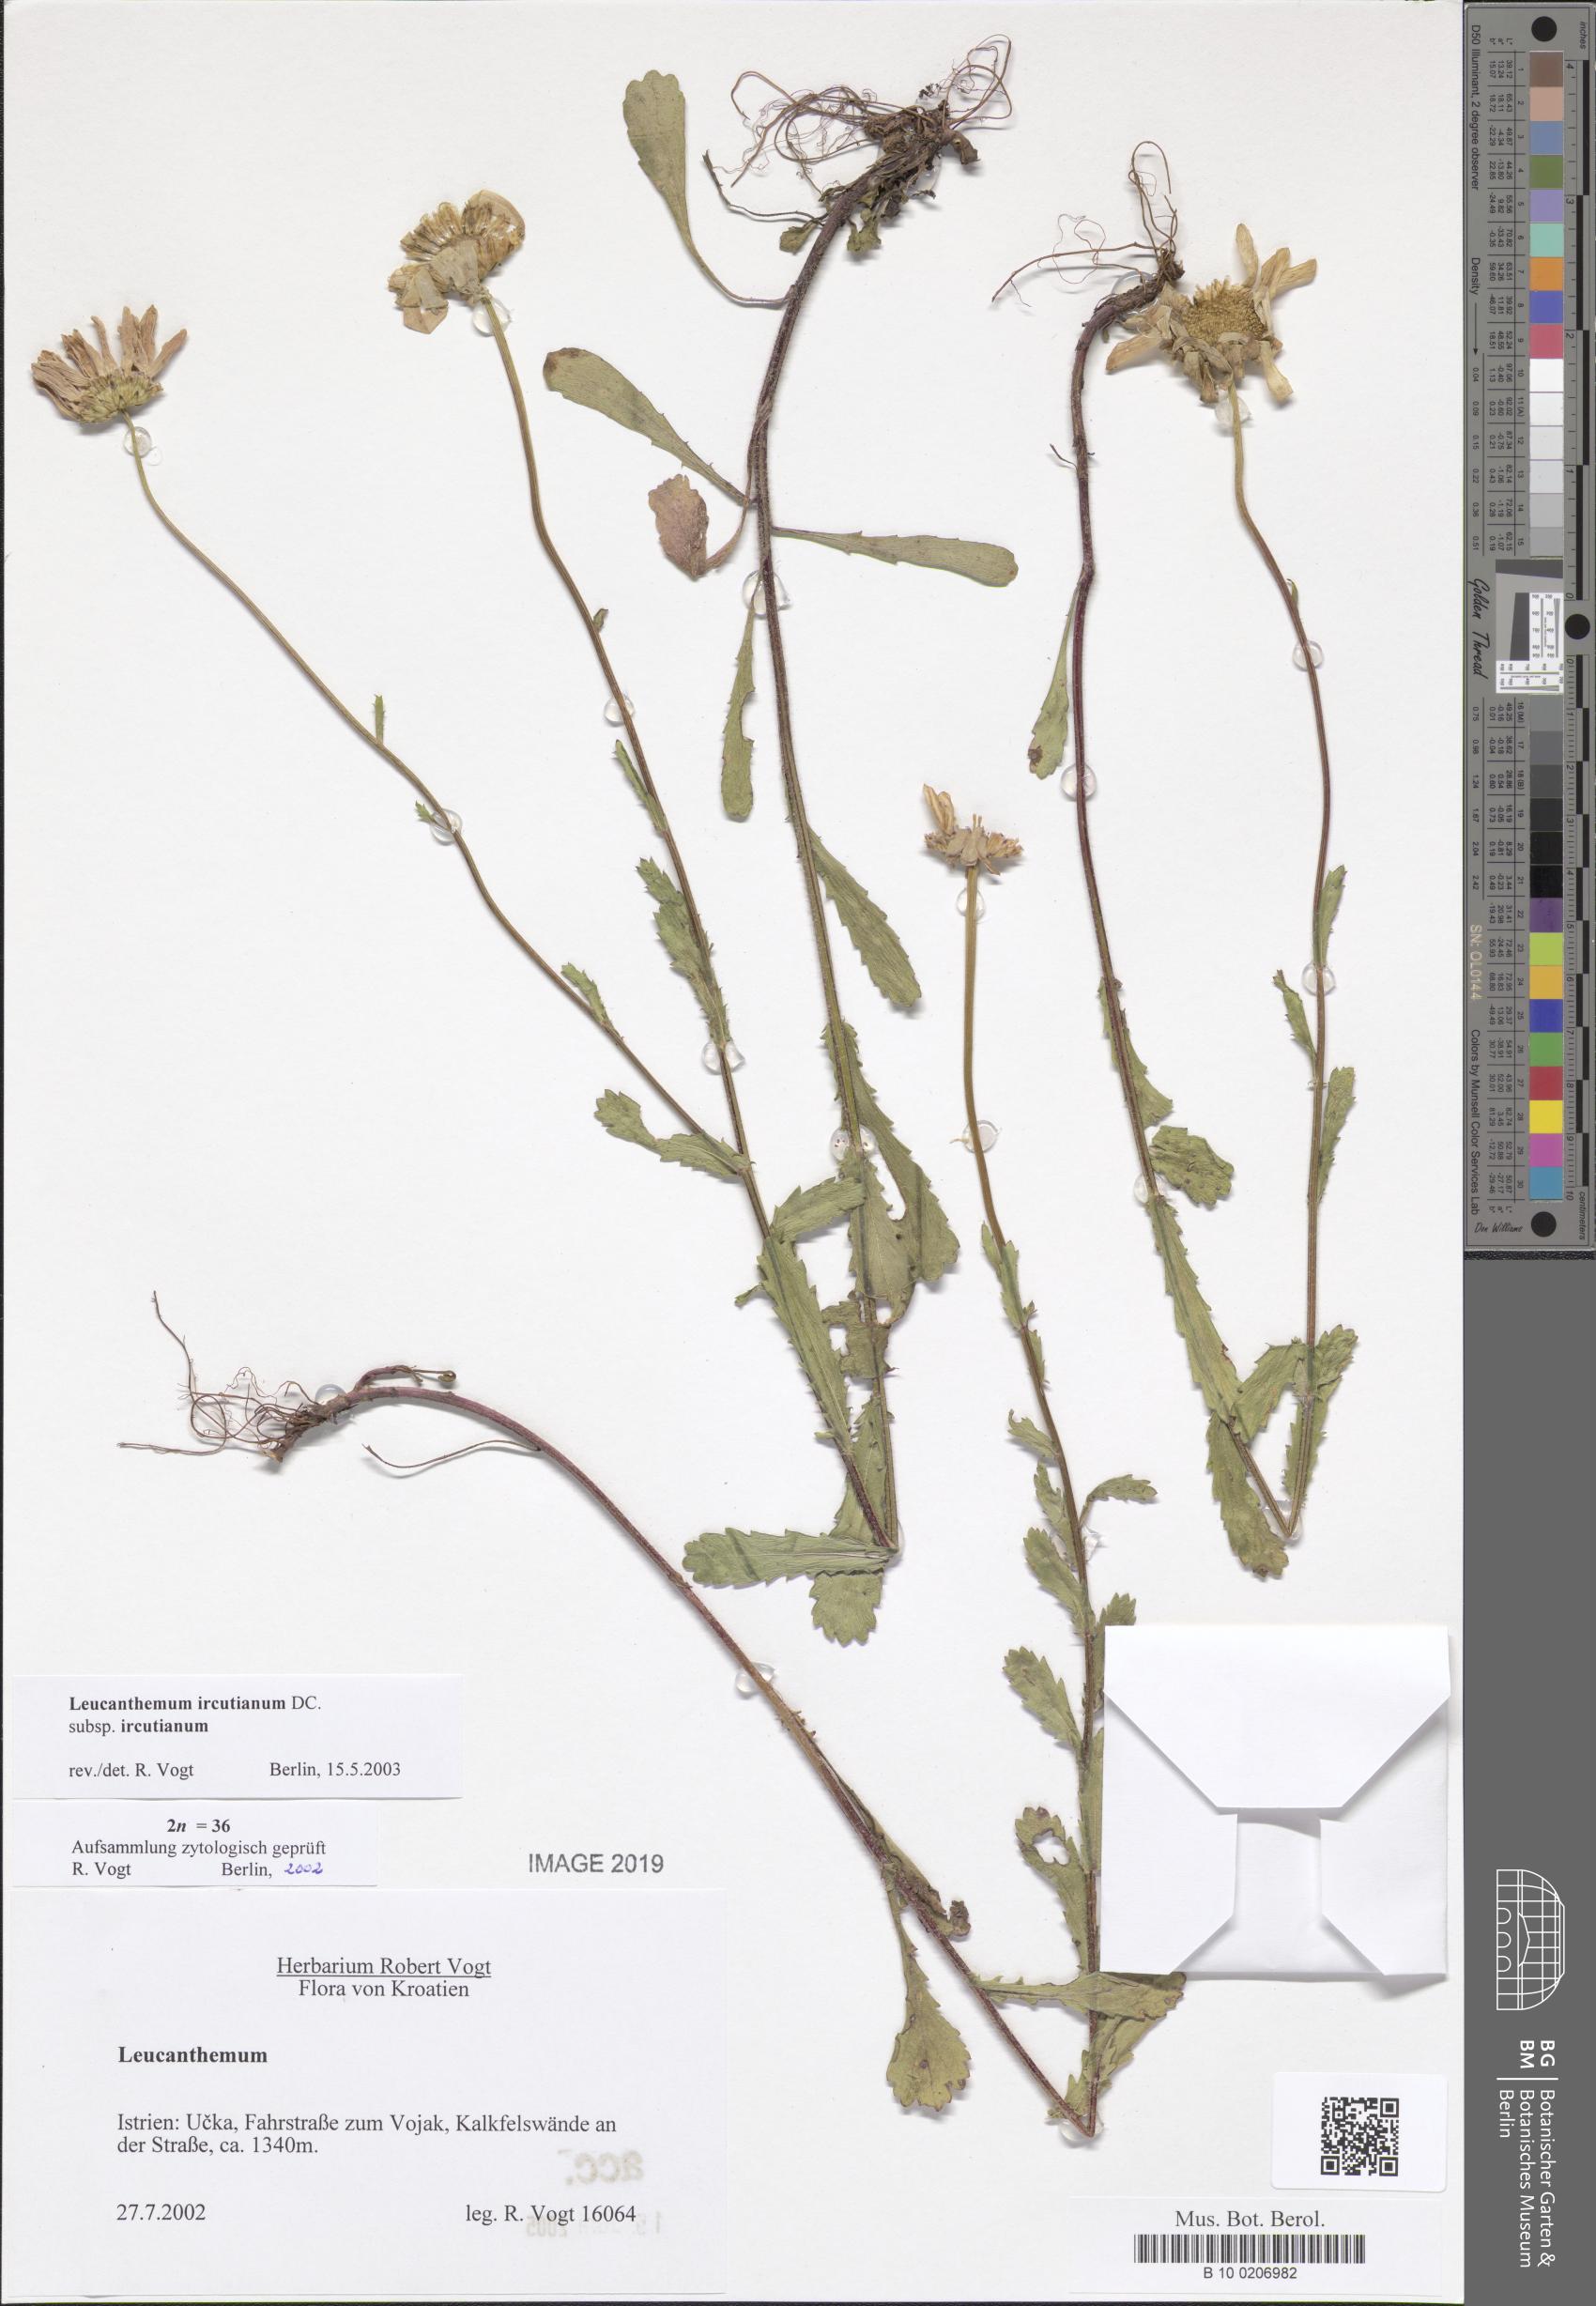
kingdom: Plantae
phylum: Tracheophyta
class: Magnoliopsida
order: Asterales
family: Asteraceae
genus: Leucanthemum
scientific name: Leucanthemum ircutianum
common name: Daisy
